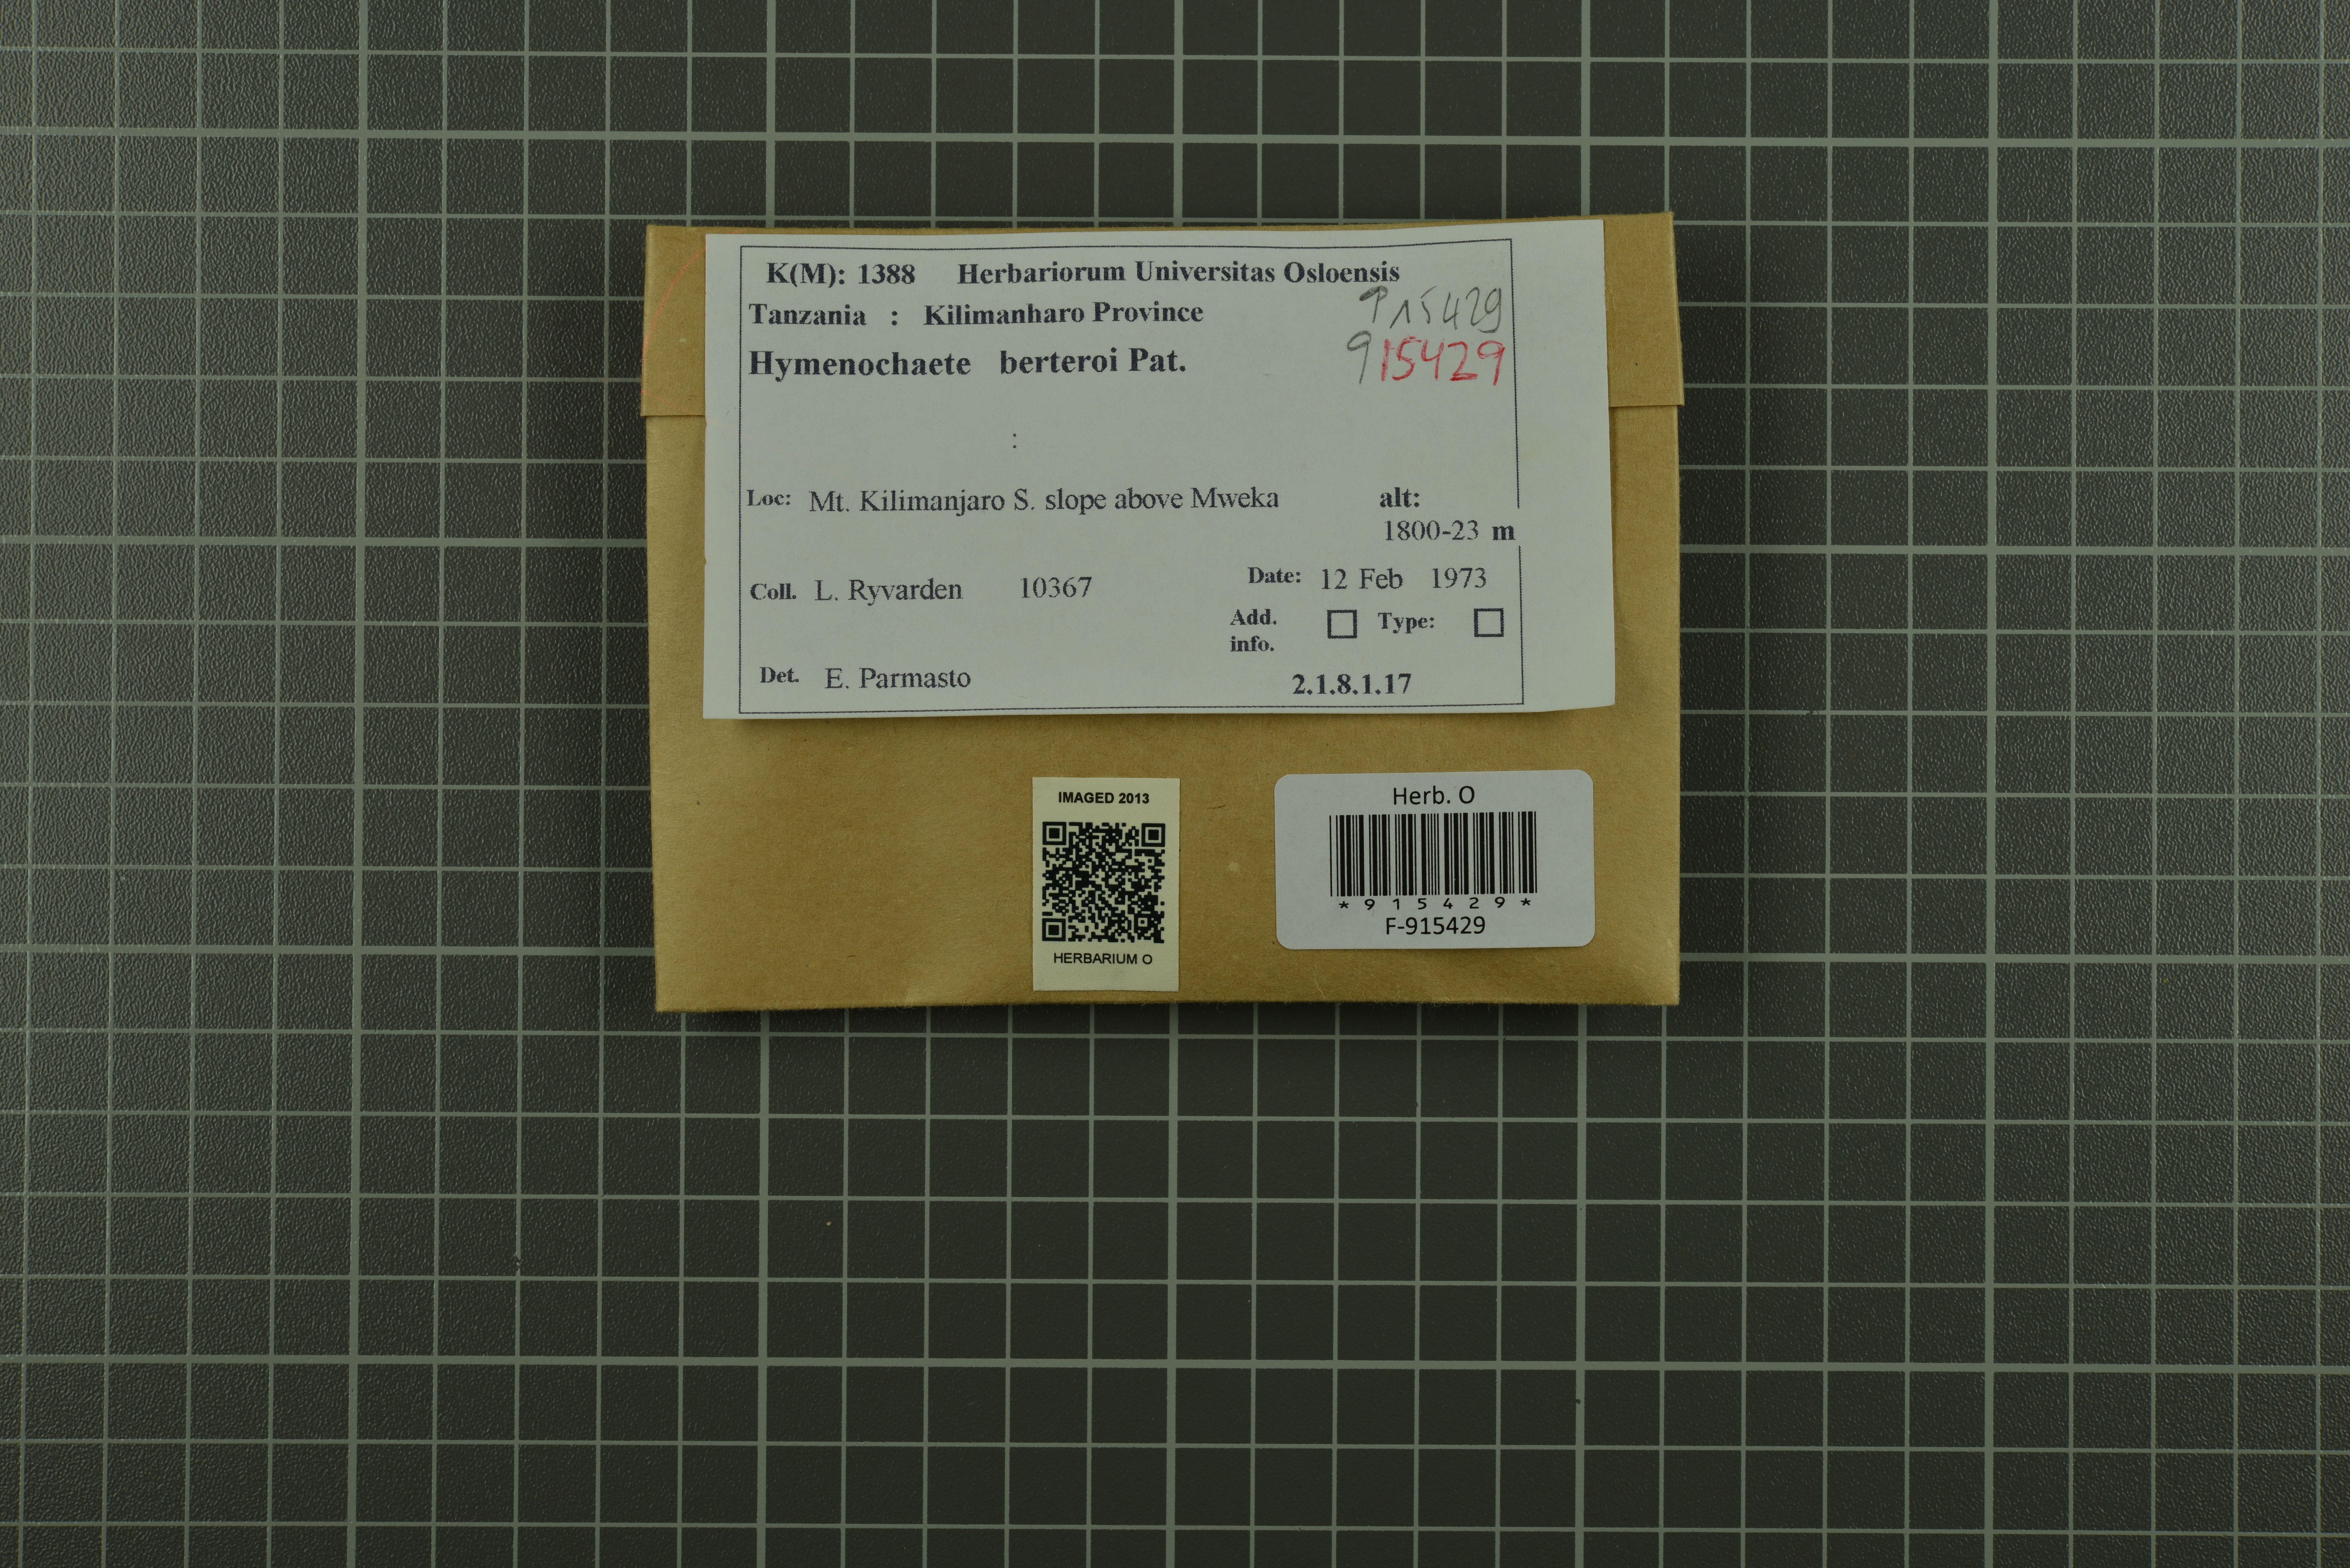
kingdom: Fungi
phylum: Basidiomycota
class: Agaricomycetes
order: Hymenochaetales
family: Hymenochaetaceae
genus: Hymenochaete
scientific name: Hymenochaete berteroi
